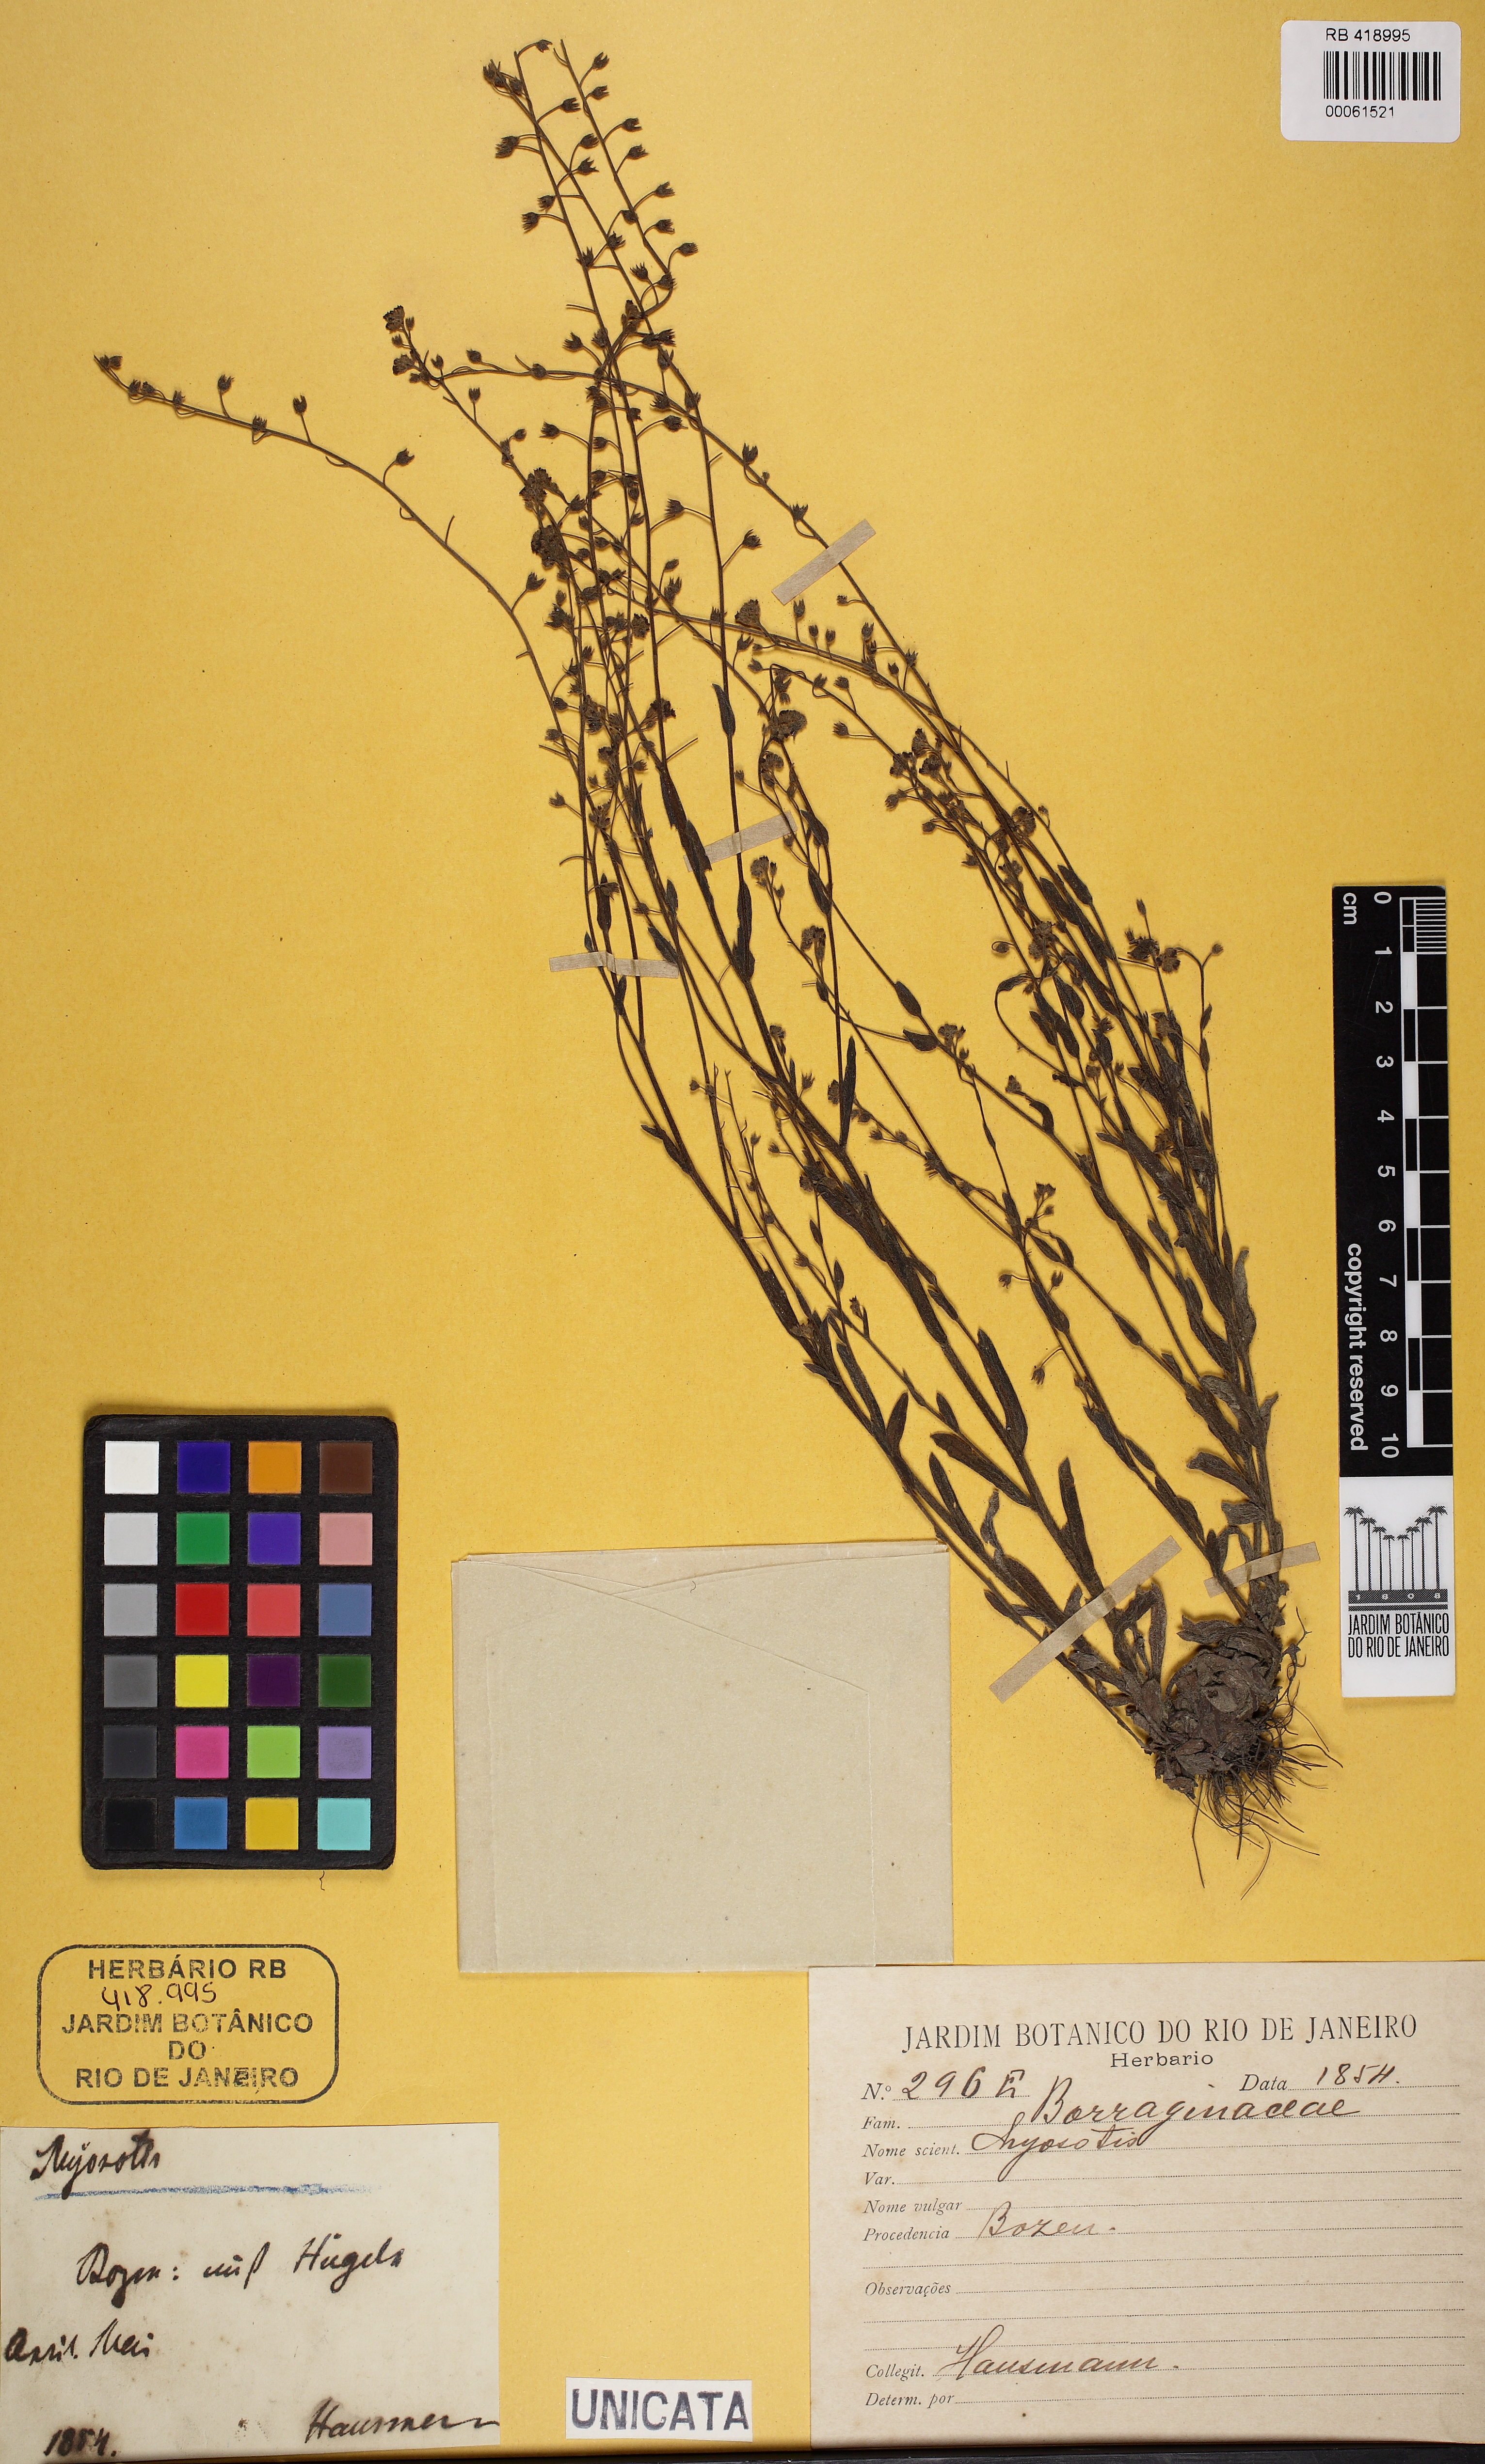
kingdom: Plantae
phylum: Tracheophyta
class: Magnoliopsida
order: Boraginales
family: Boraginaceae
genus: Myosotis
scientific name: Myosotis
